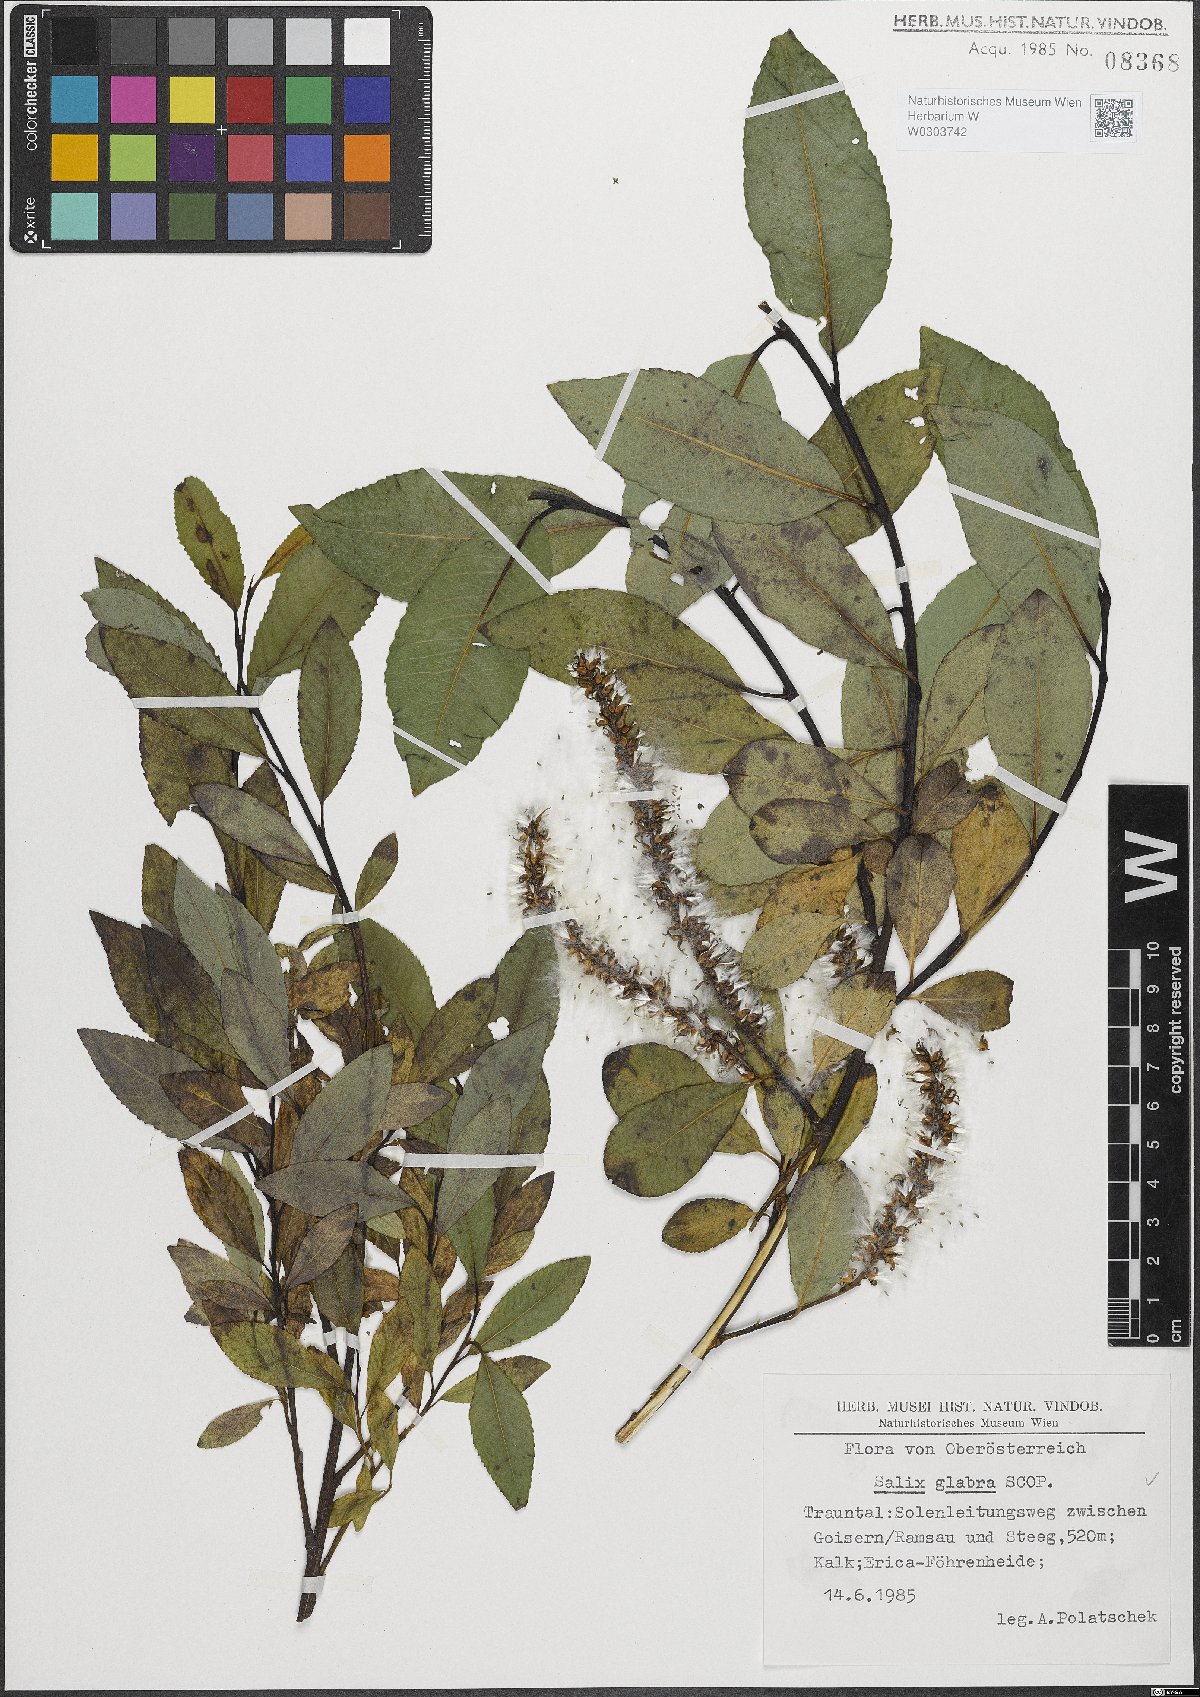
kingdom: Plantae
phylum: Tracheophyta
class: Magnoliopsida
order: Malpighiales
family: Salicaceae
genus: Salix
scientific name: Salix glabra
